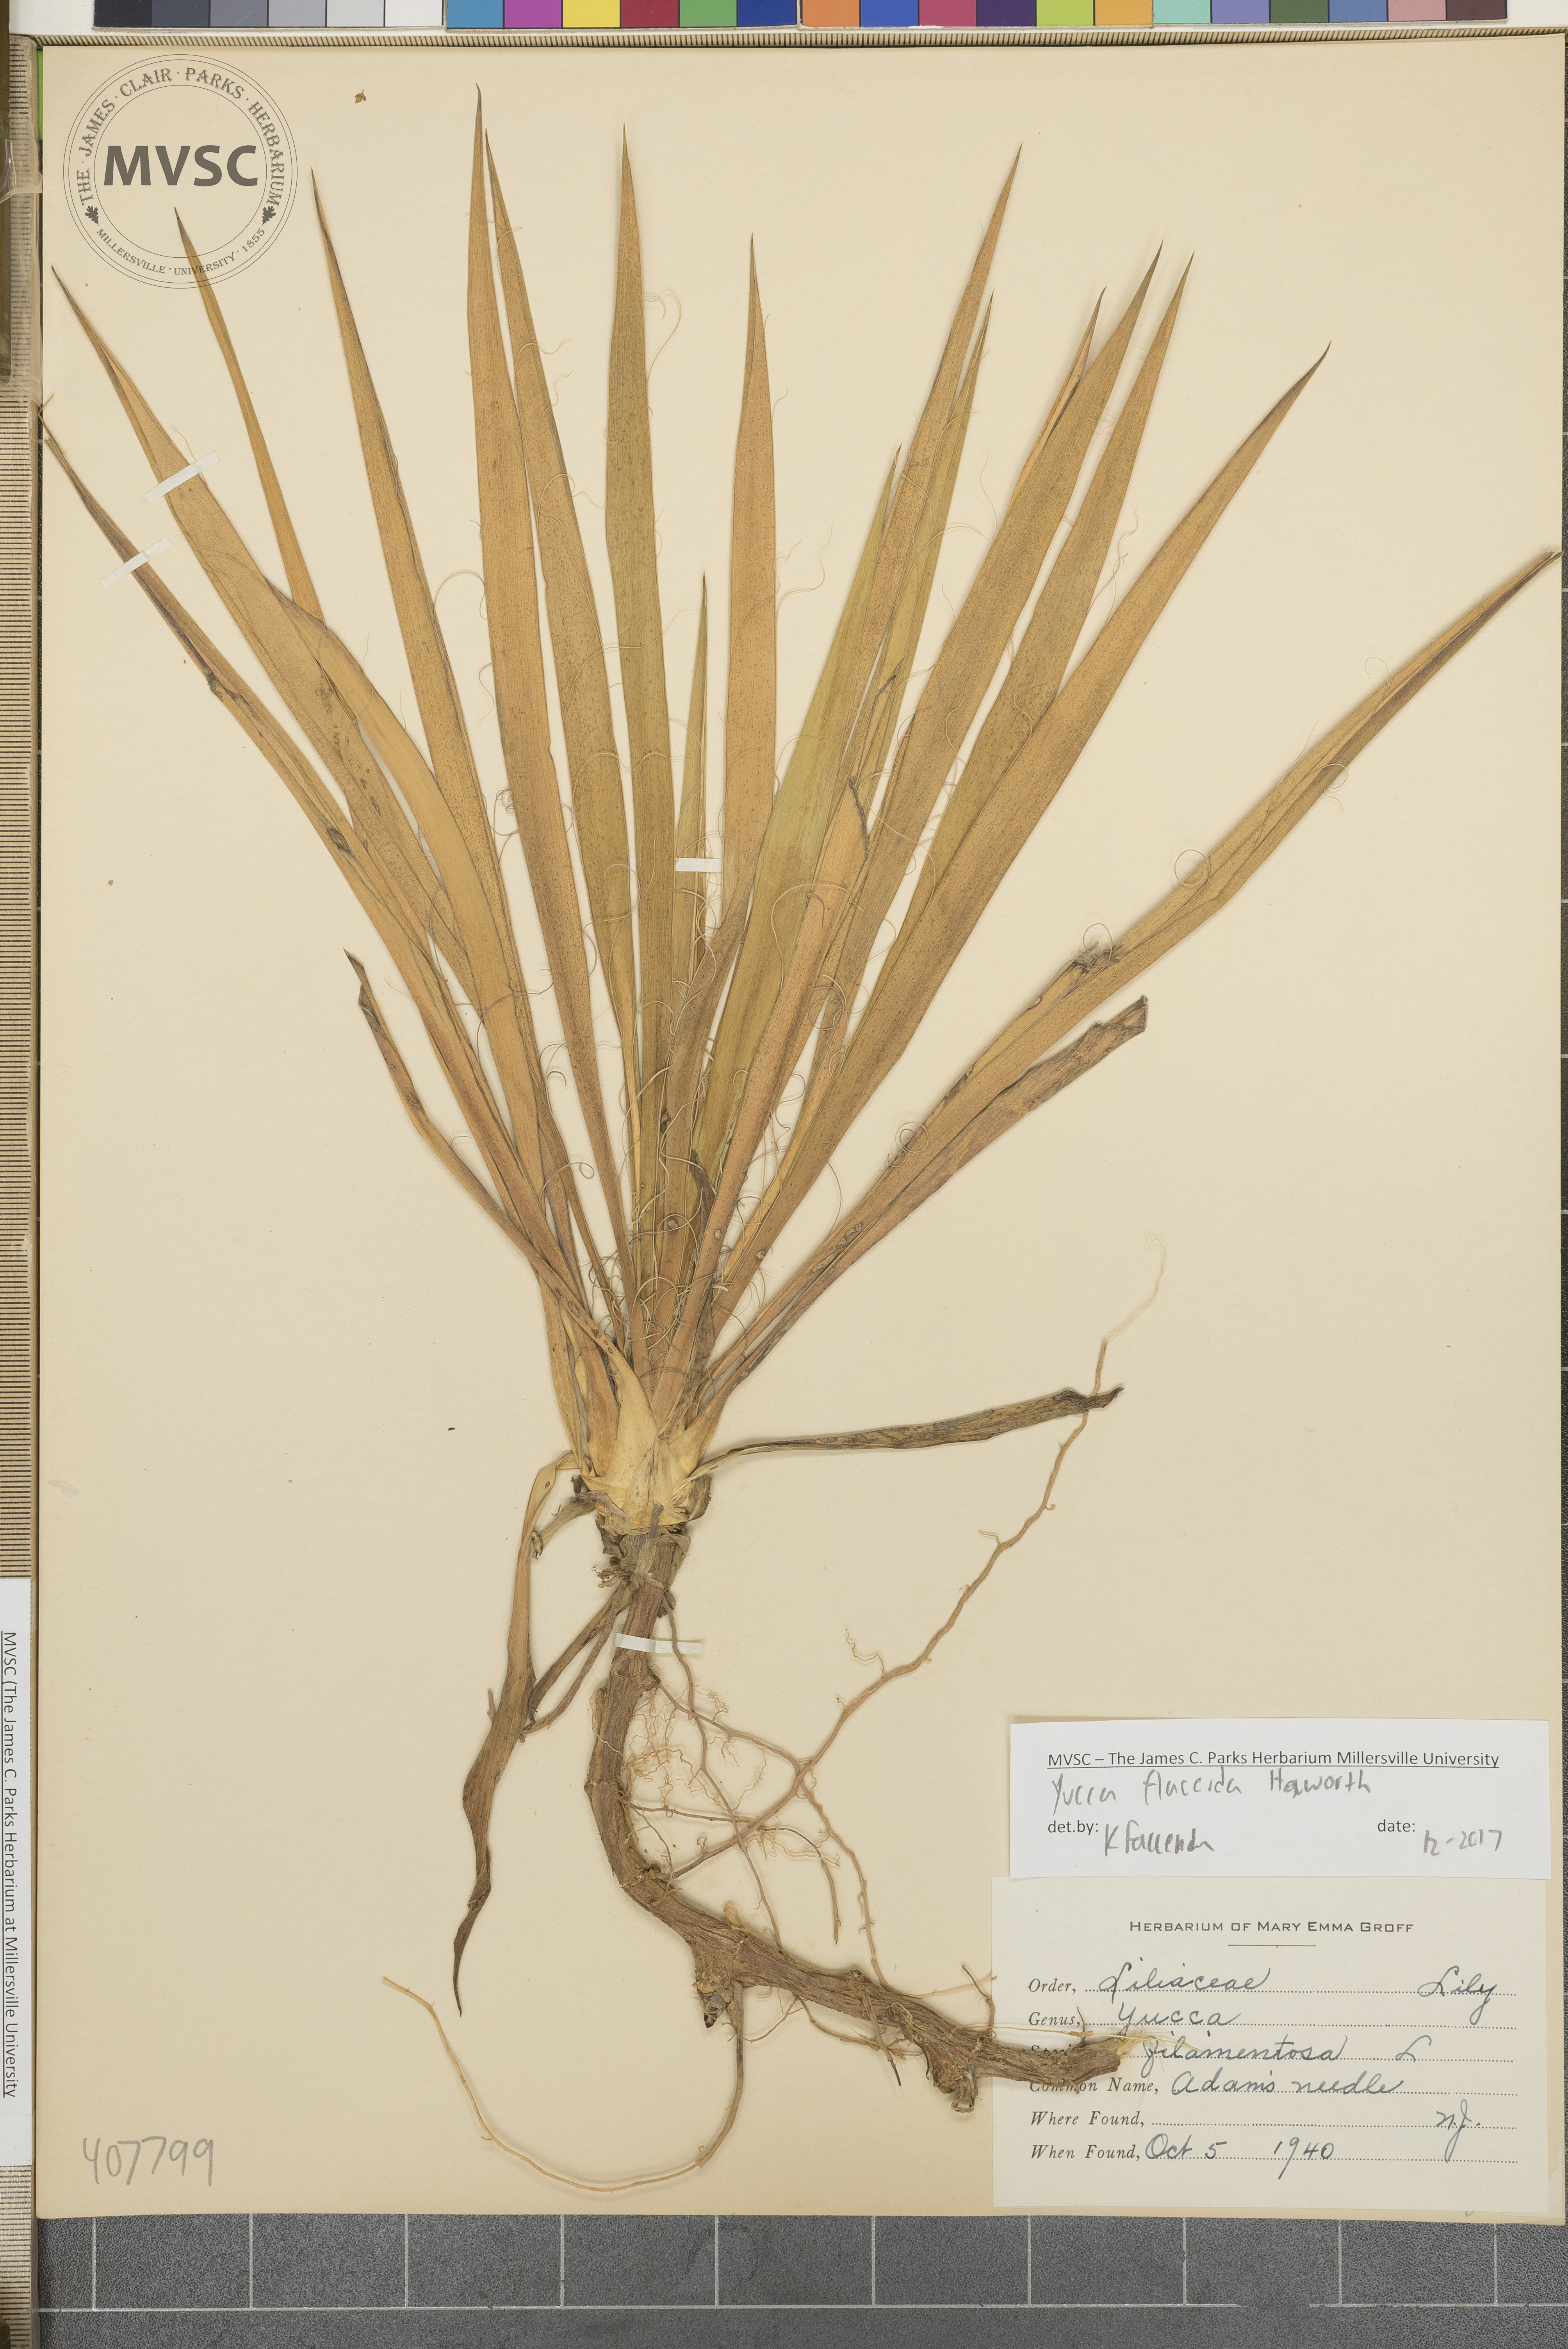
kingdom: Plantae
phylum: Tracheophyta
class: Liliopsida
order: Asparagales
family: Asparagaceae
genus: Yucca
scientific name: Yucca filamentosa
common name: Adam's Needle
